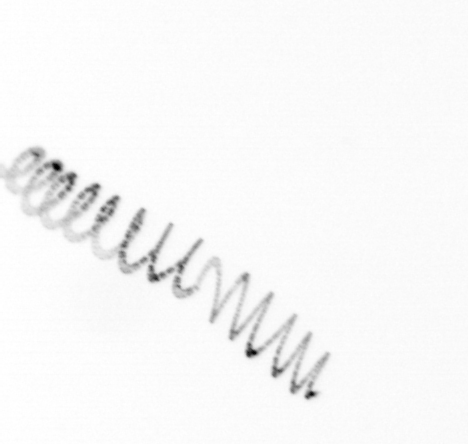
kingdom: Chromista
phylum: Ochrophyta
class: Bacillariophyceae
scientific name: Bacillariophyceae
